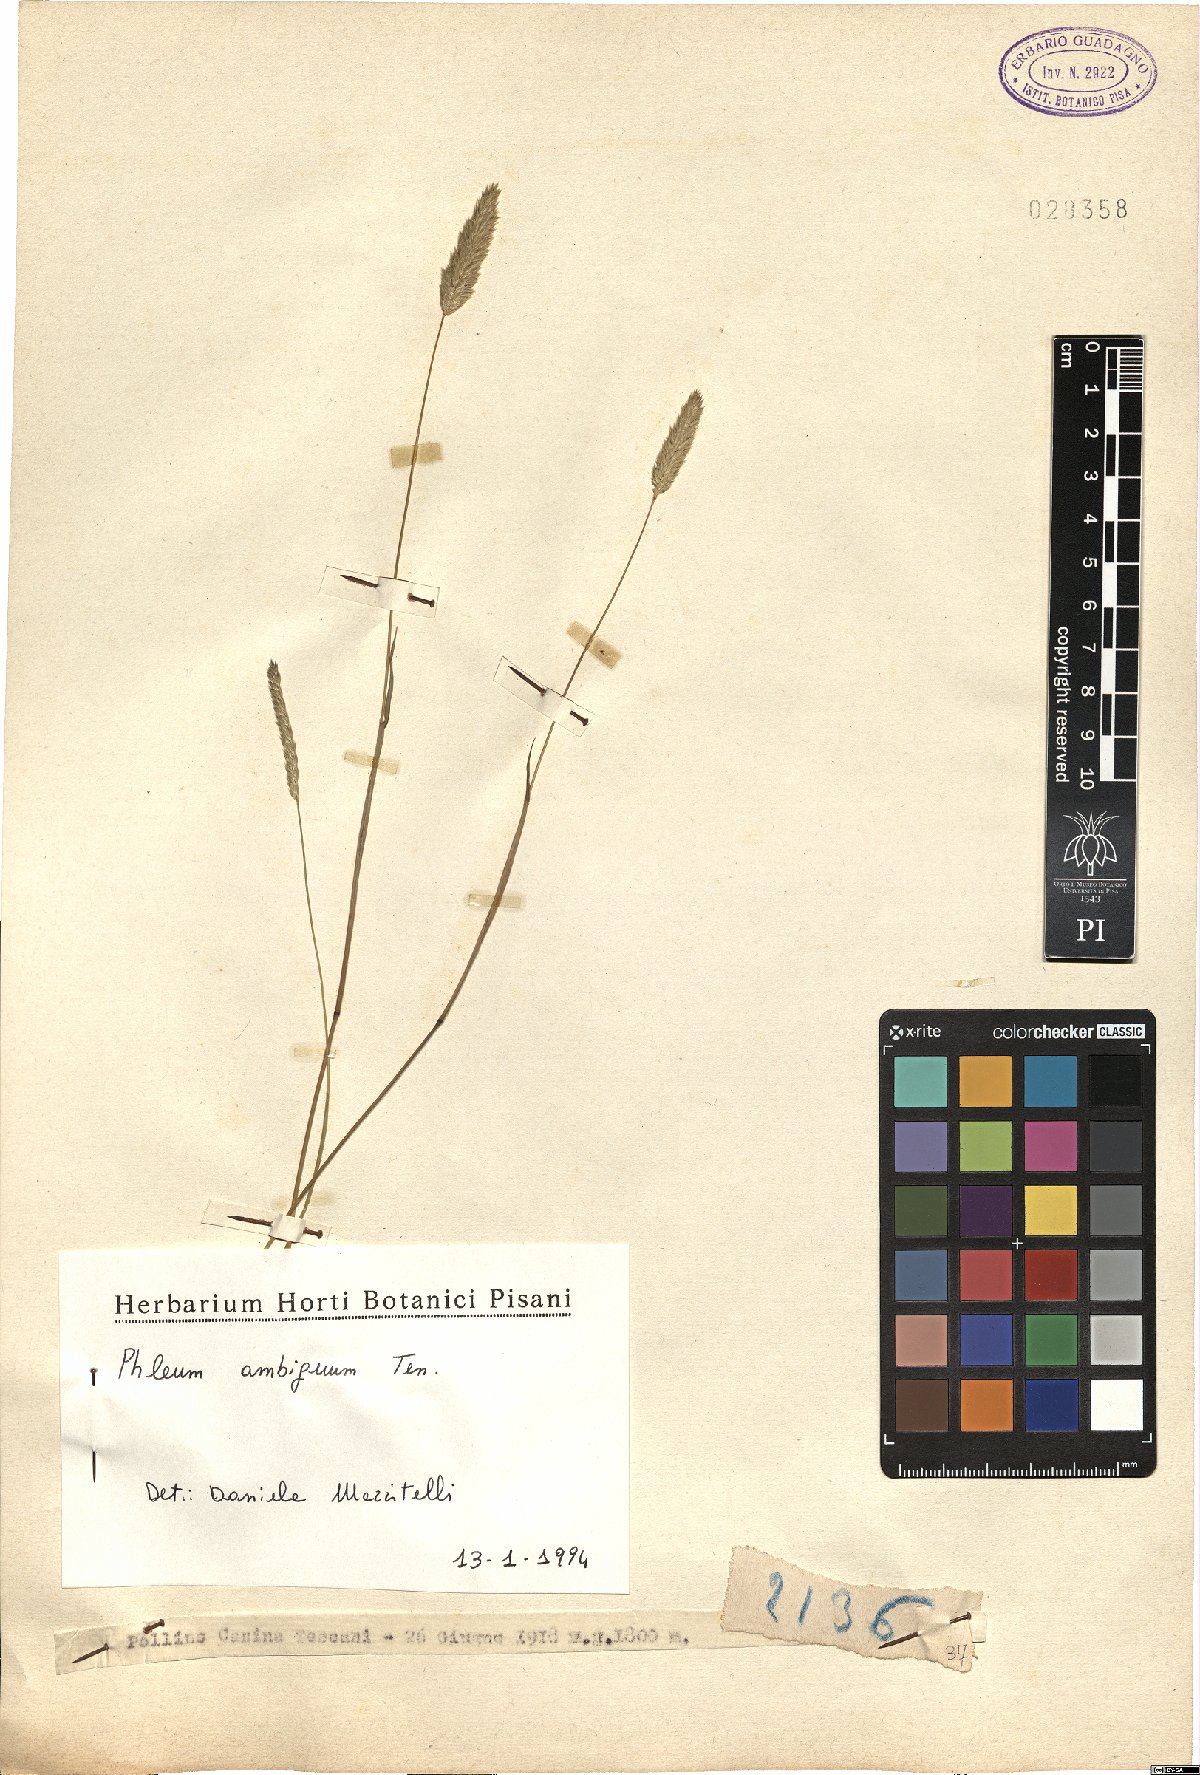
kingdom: Plantae
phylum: Tracheophyta
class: Liliopsida
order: Poales
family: Poaceae
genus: Phleum
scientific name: Phleum hirsutum
